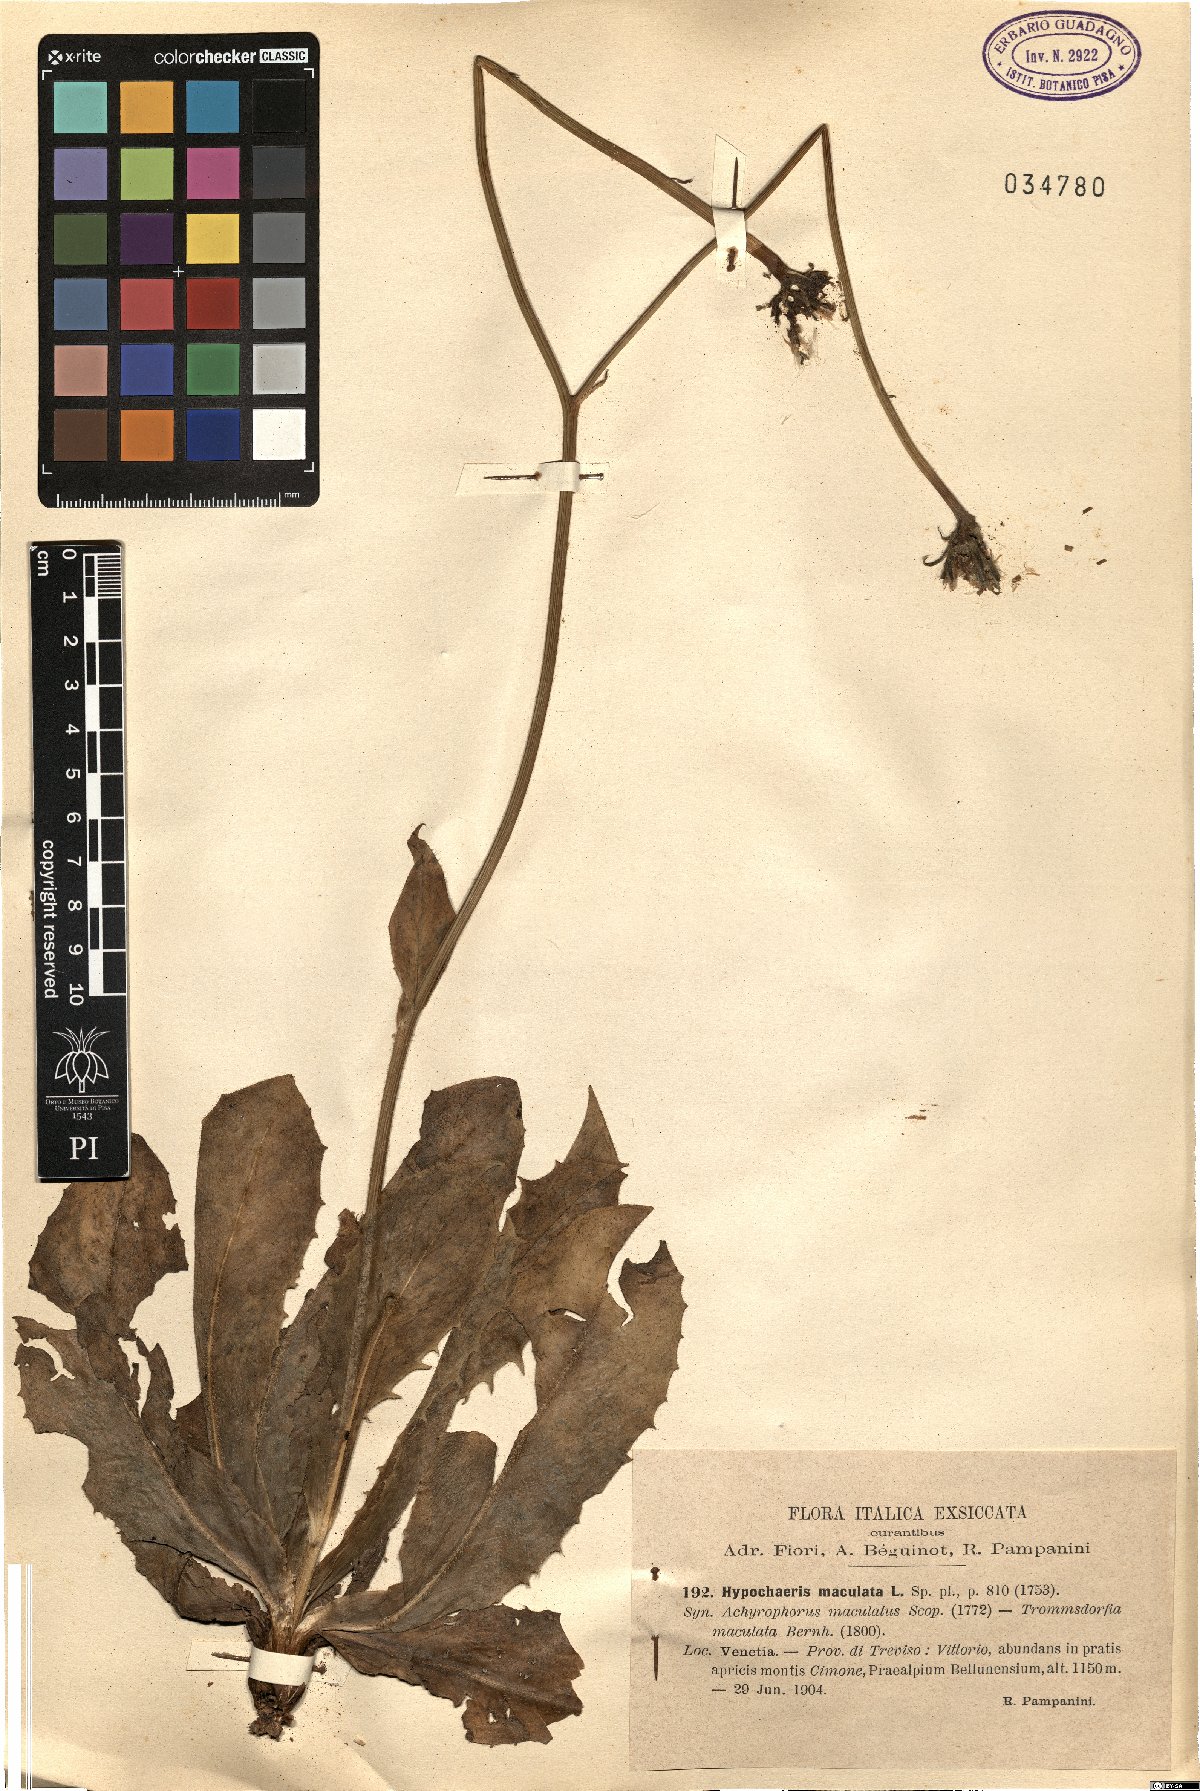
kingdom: Plantae
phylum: Tracheophyta
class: Magnoliopsida
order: Asterales
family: Asteraceae
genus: Trommsdorffia
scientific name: Trommsdorffia maculata
